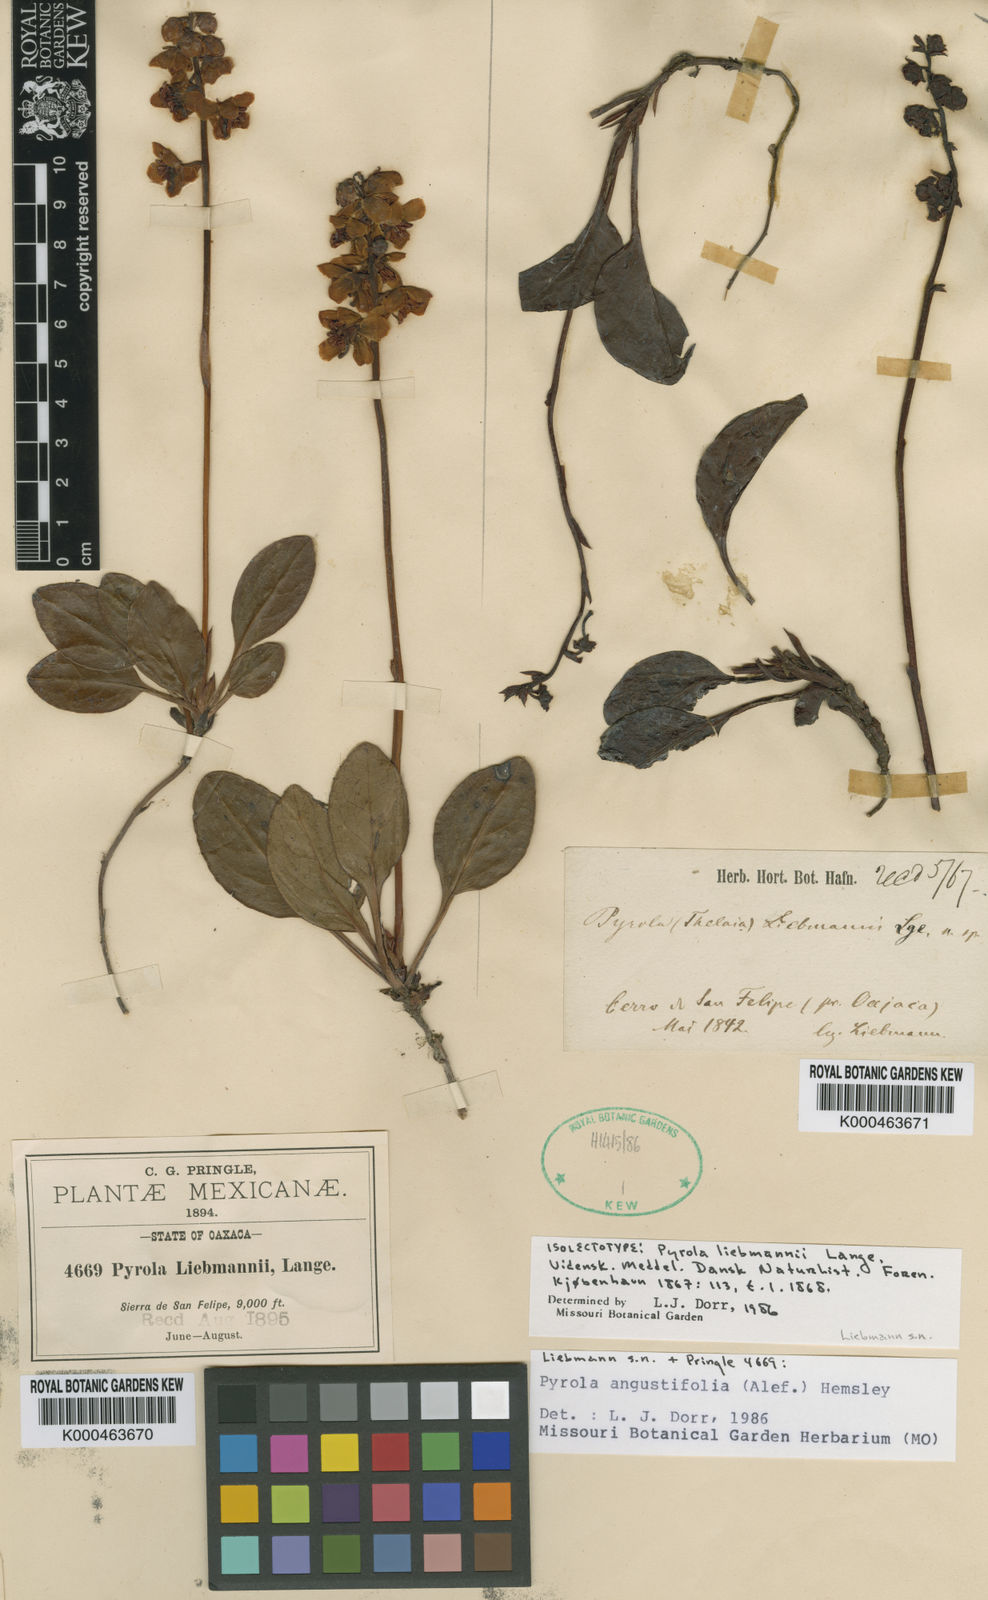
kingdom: Plantae
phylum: Tracheophyta
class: Magnoliopsida
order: Ericales
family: Ericaceae
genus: Pyrola
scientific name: Pyrola angustifolia
